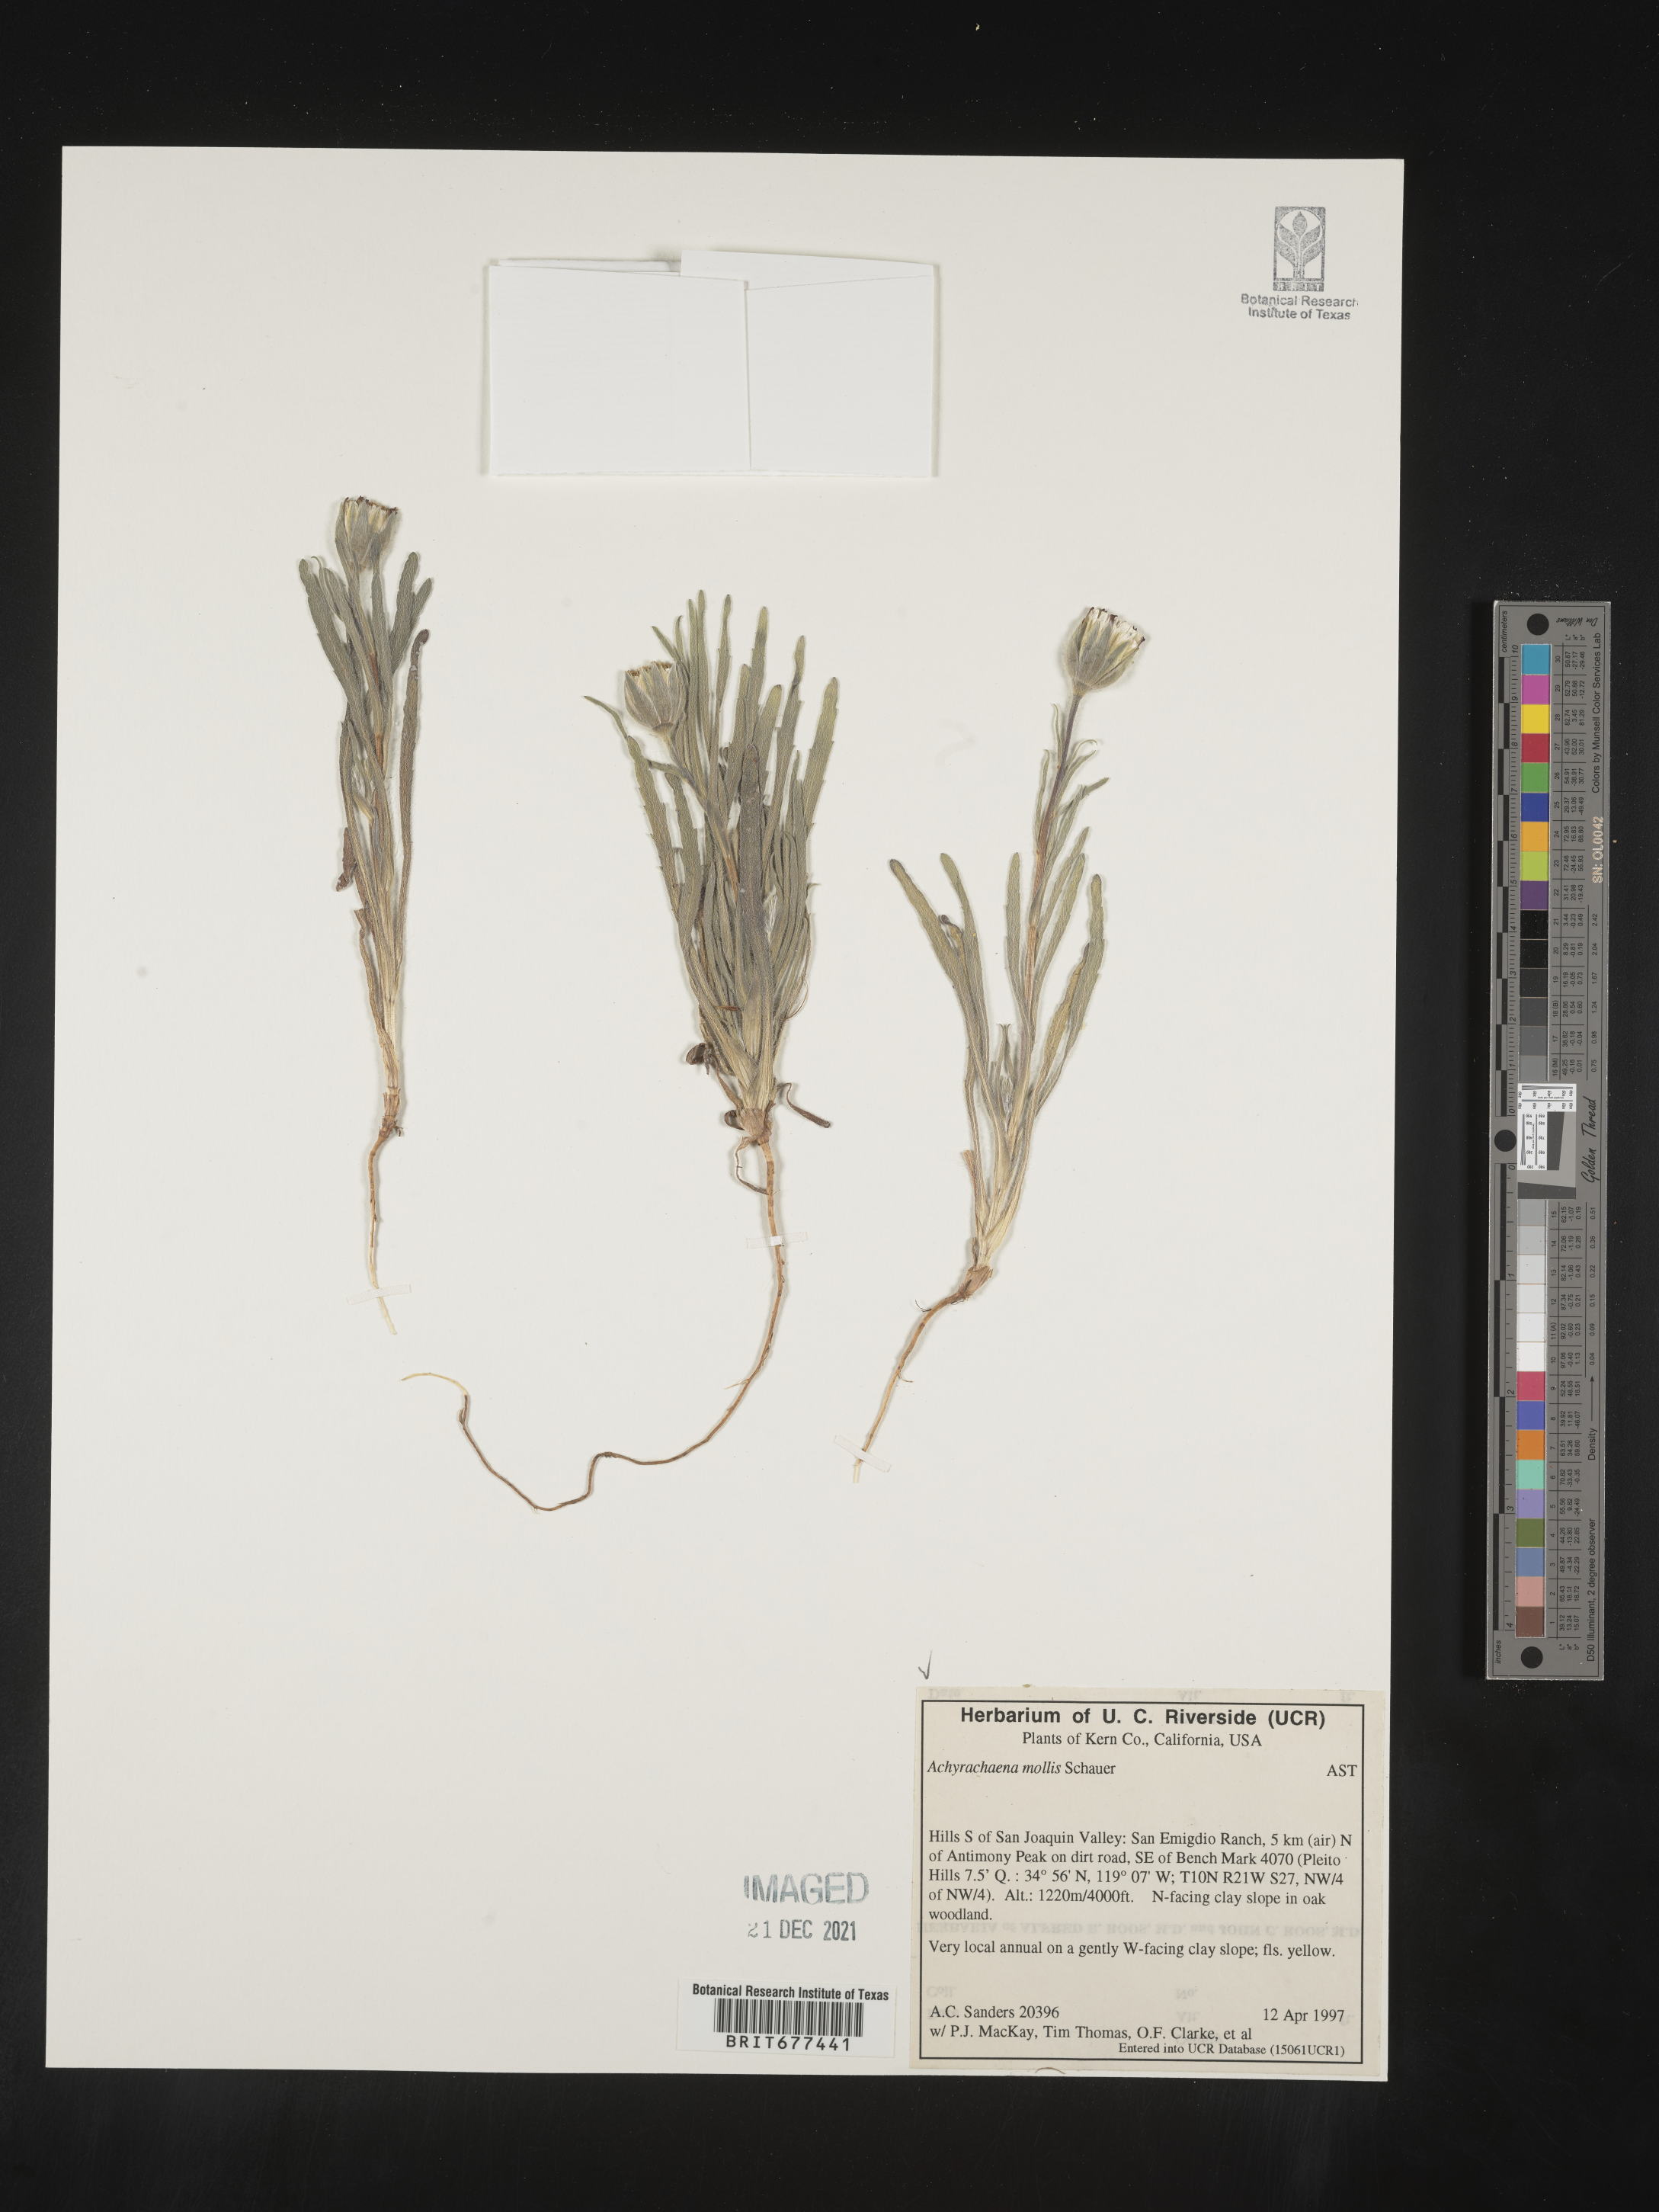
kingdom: Plantae
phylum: Tracheophyta
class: Magnoliopsida
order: Asterales
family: Asteraceae
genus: Achyrachaena
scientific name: Achyrachaena mollis
